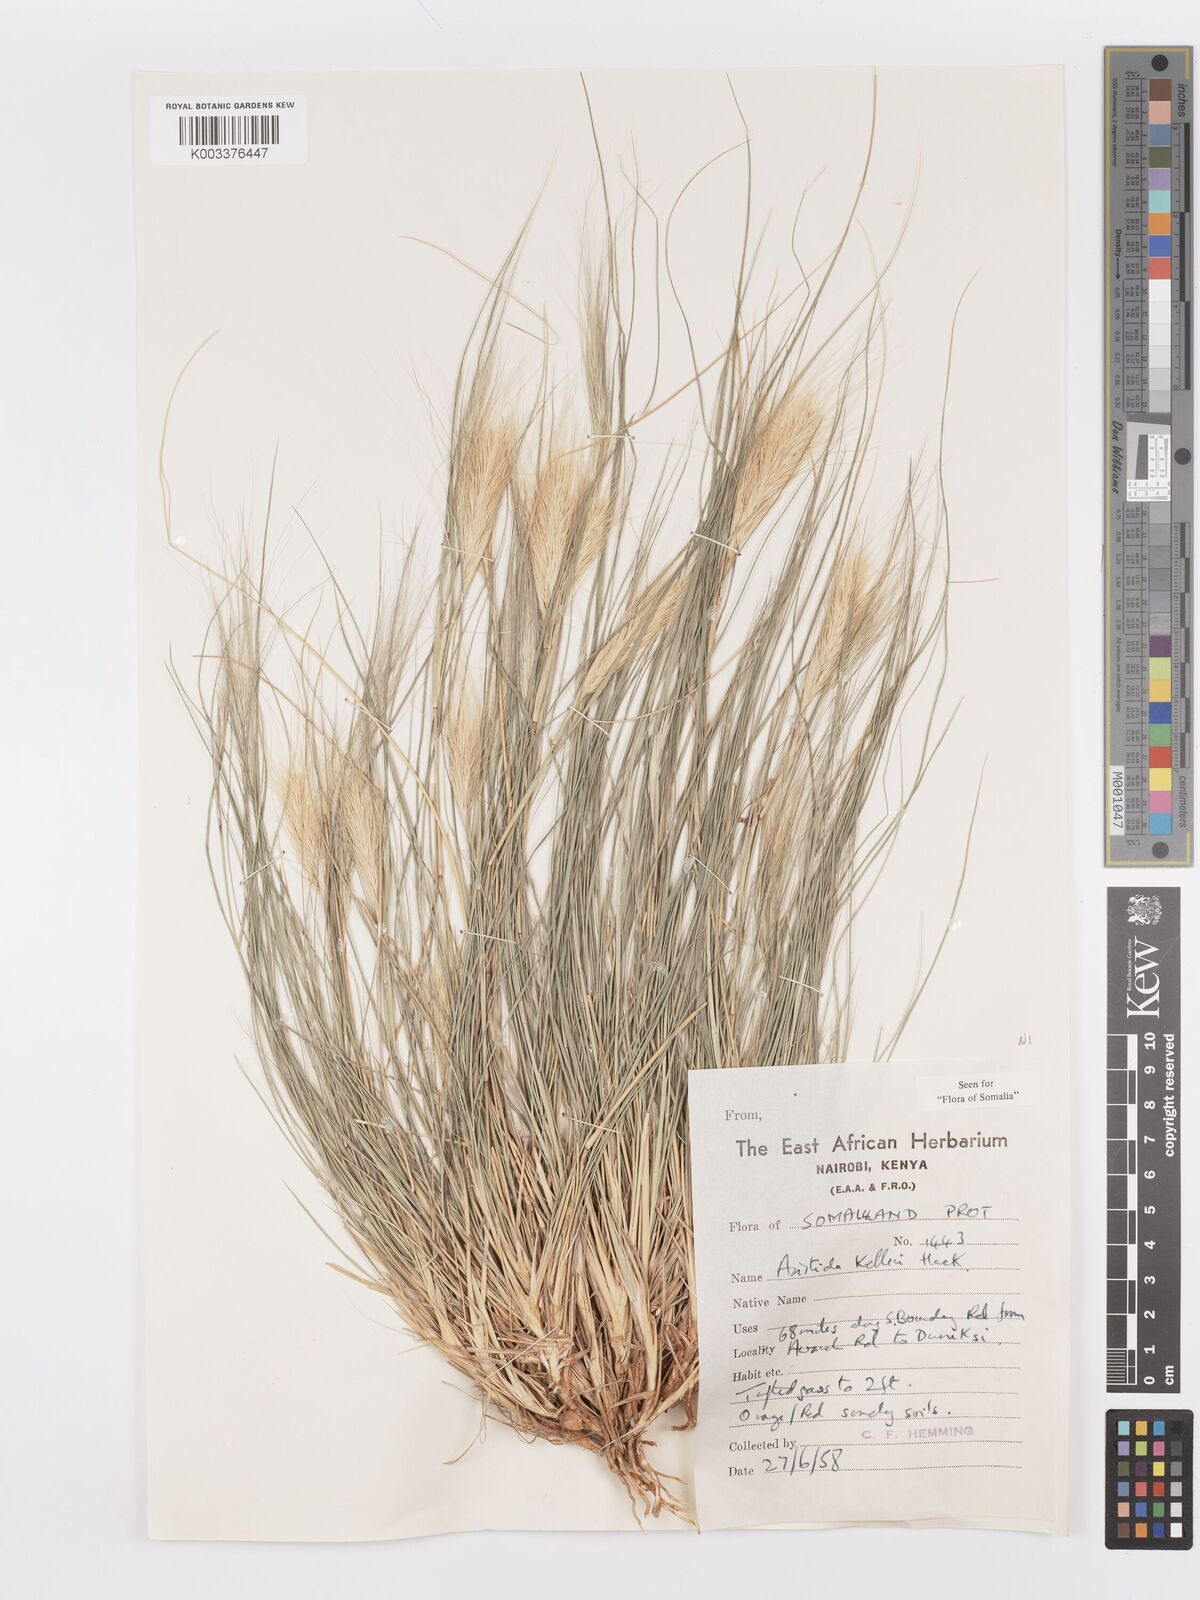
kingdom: Plantae
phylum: Tracheophyta
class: Liliopsida
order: Poales
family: Poaceae
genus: Aristida
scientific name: Aristida kelleri
